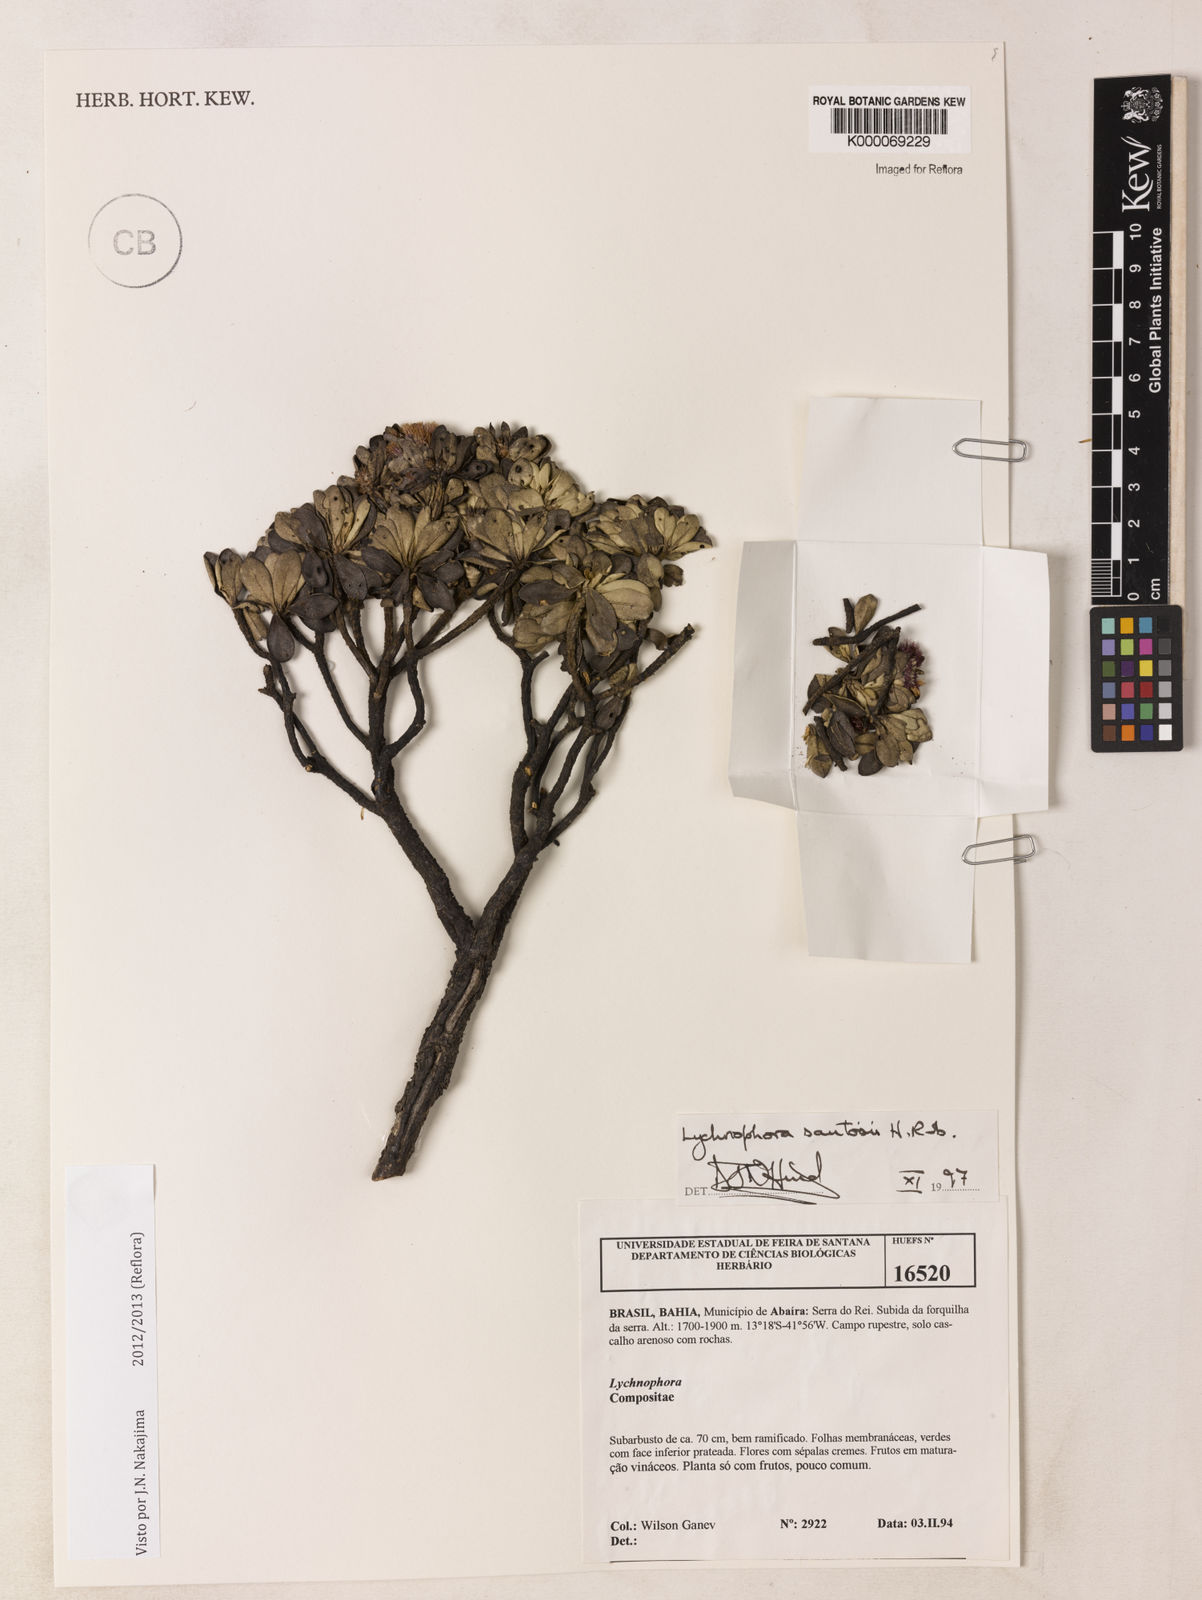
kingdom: Plantae
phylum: Tracheophyta
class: Magnoliopsida
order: Asterales
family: Asteraceae
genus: Lychnophorella
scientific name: Lychnophorella santosii
